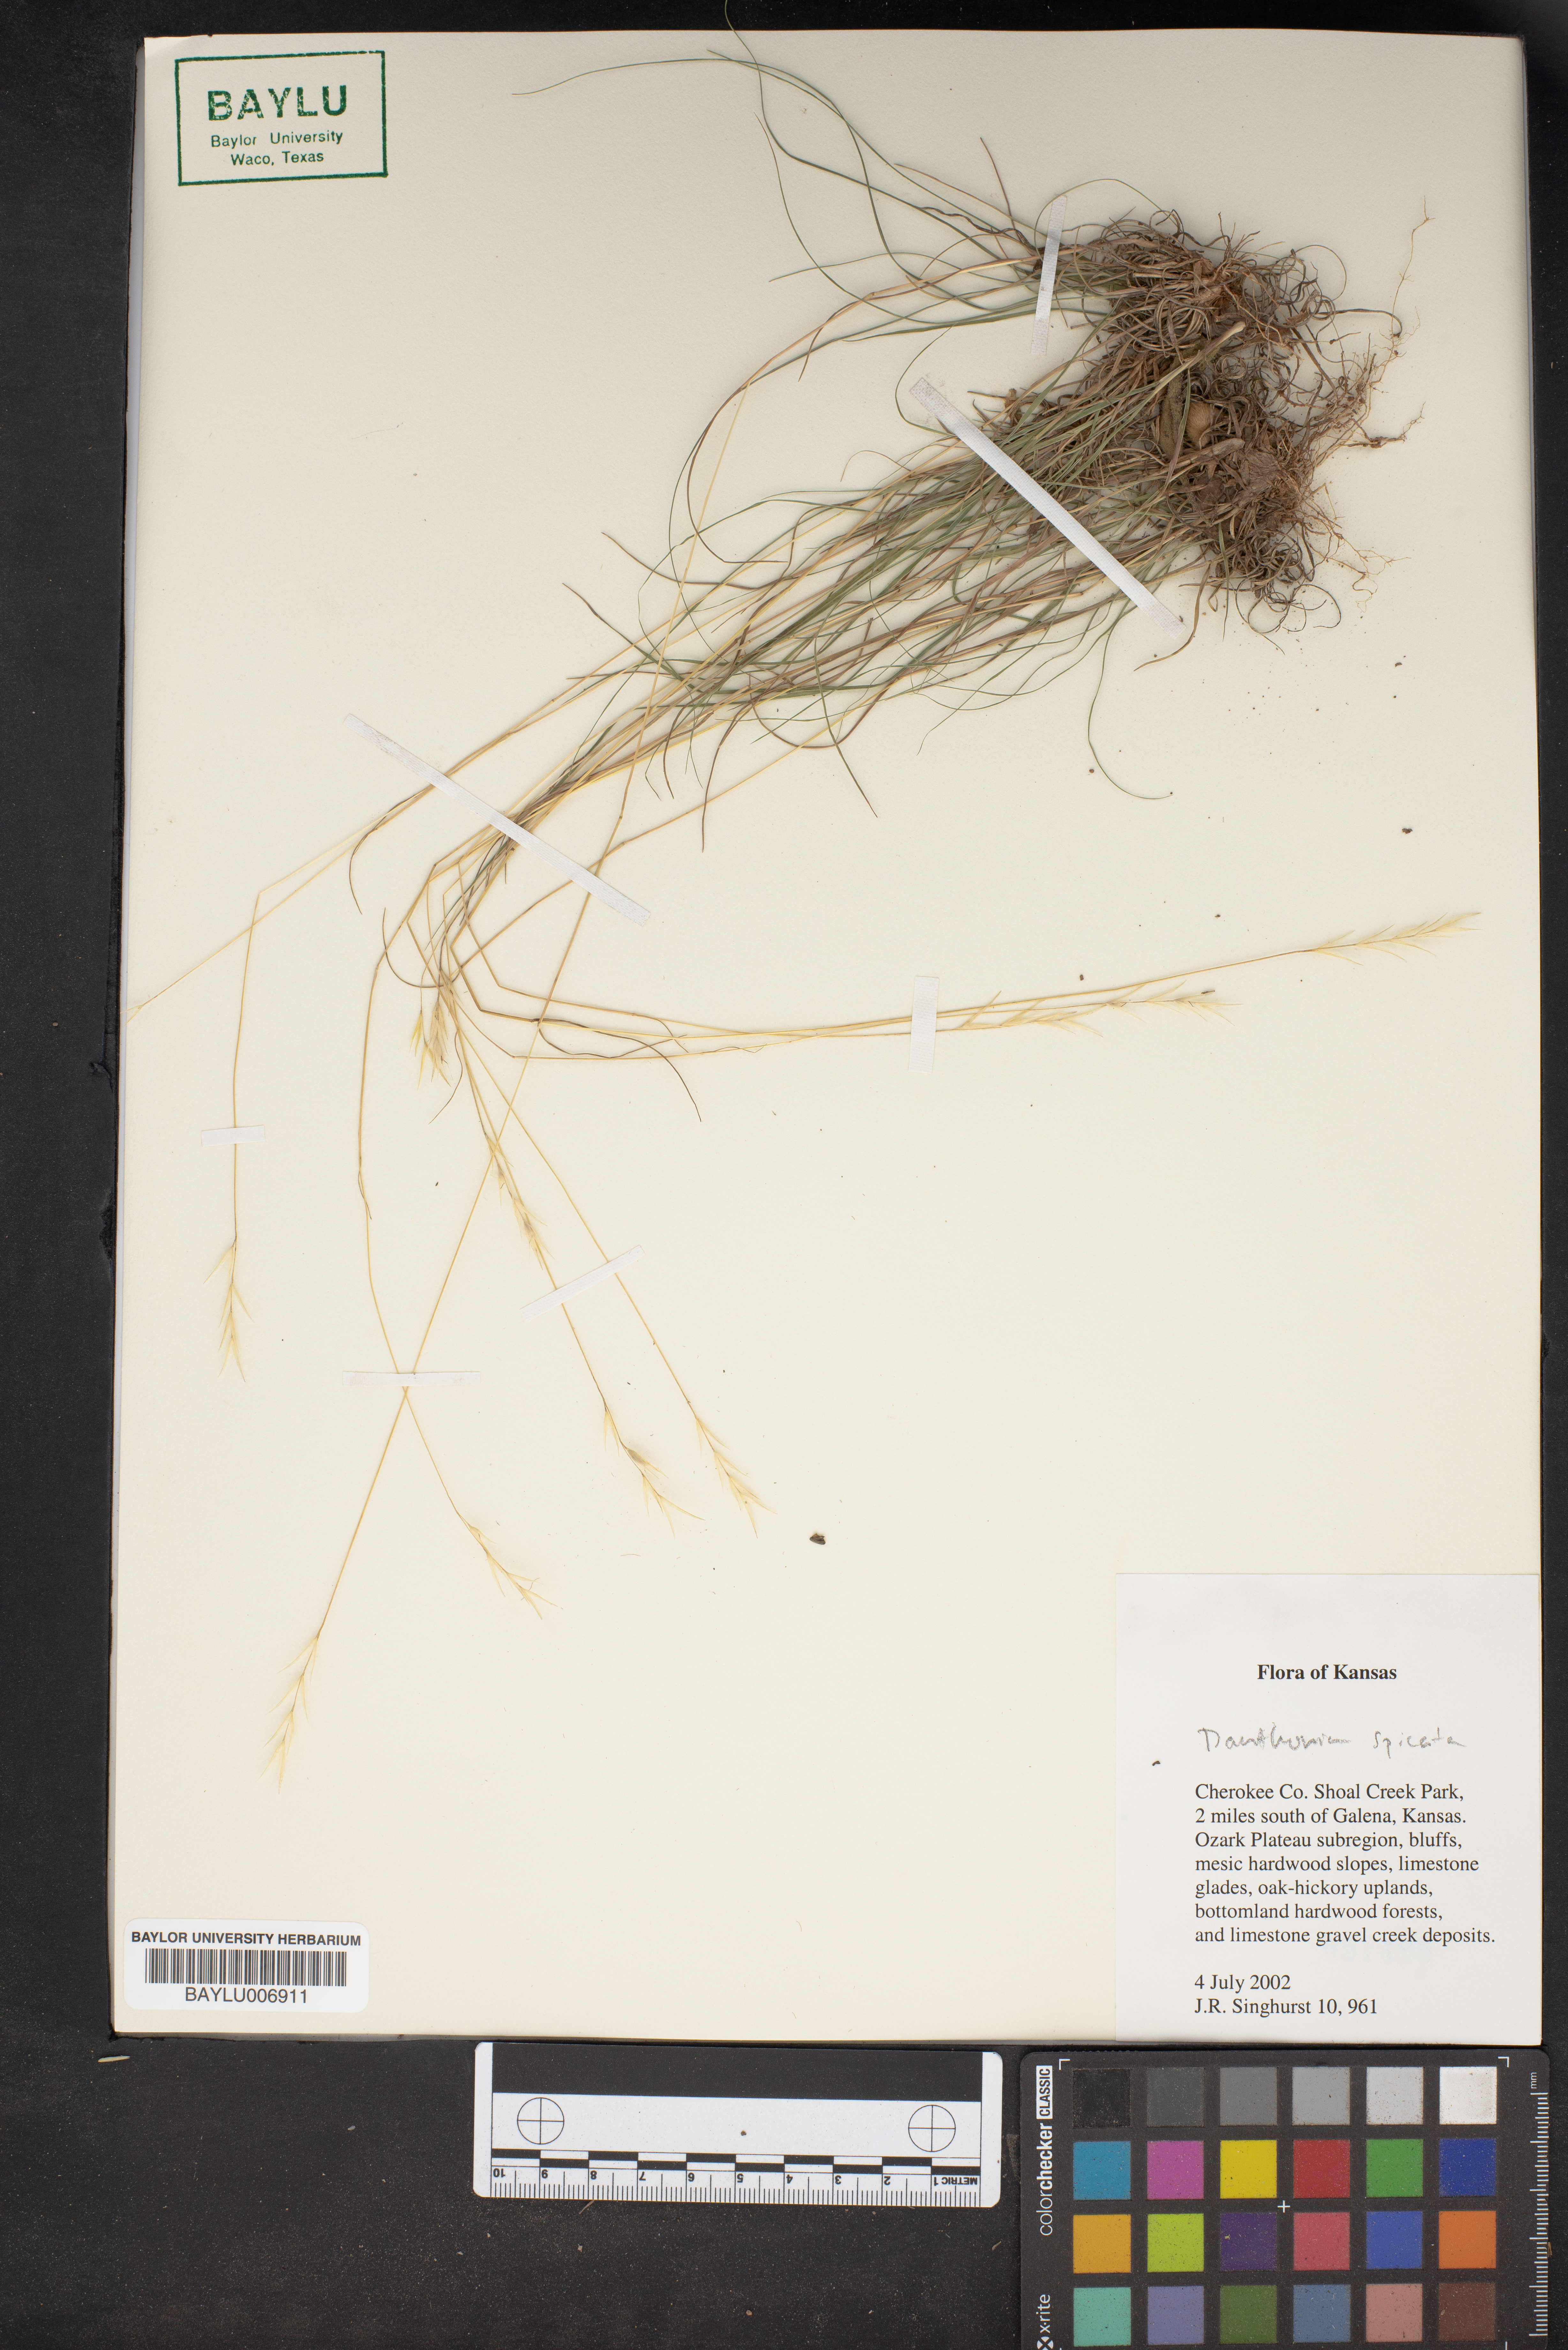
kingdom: Plantae
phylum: Tracheophyta
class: Liliopsida
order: Poales
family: Poaceae
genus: Danthonia
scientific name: Danthonia spicata
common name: Common wild oatgrass
